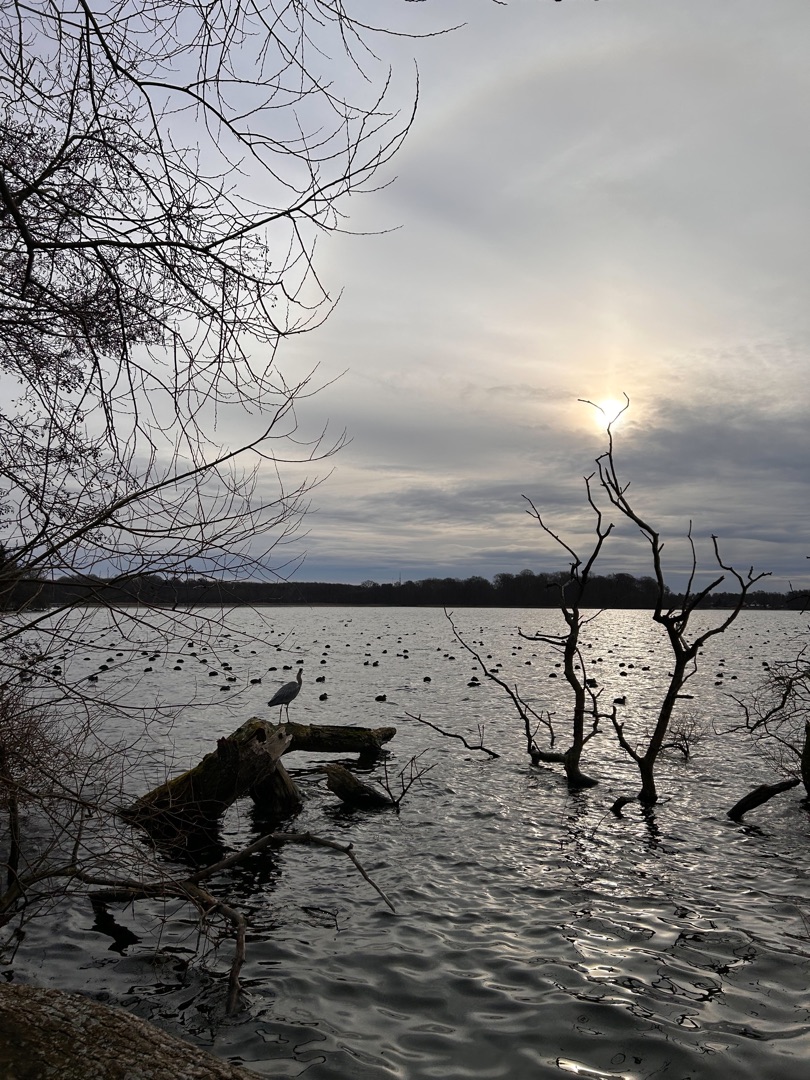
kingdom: Animalia
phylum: Chordata
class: Aves
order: Pelecaniformes
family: Ardeidae
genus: Ardea
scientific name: Ardea cinerea
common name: Fiskehejre
